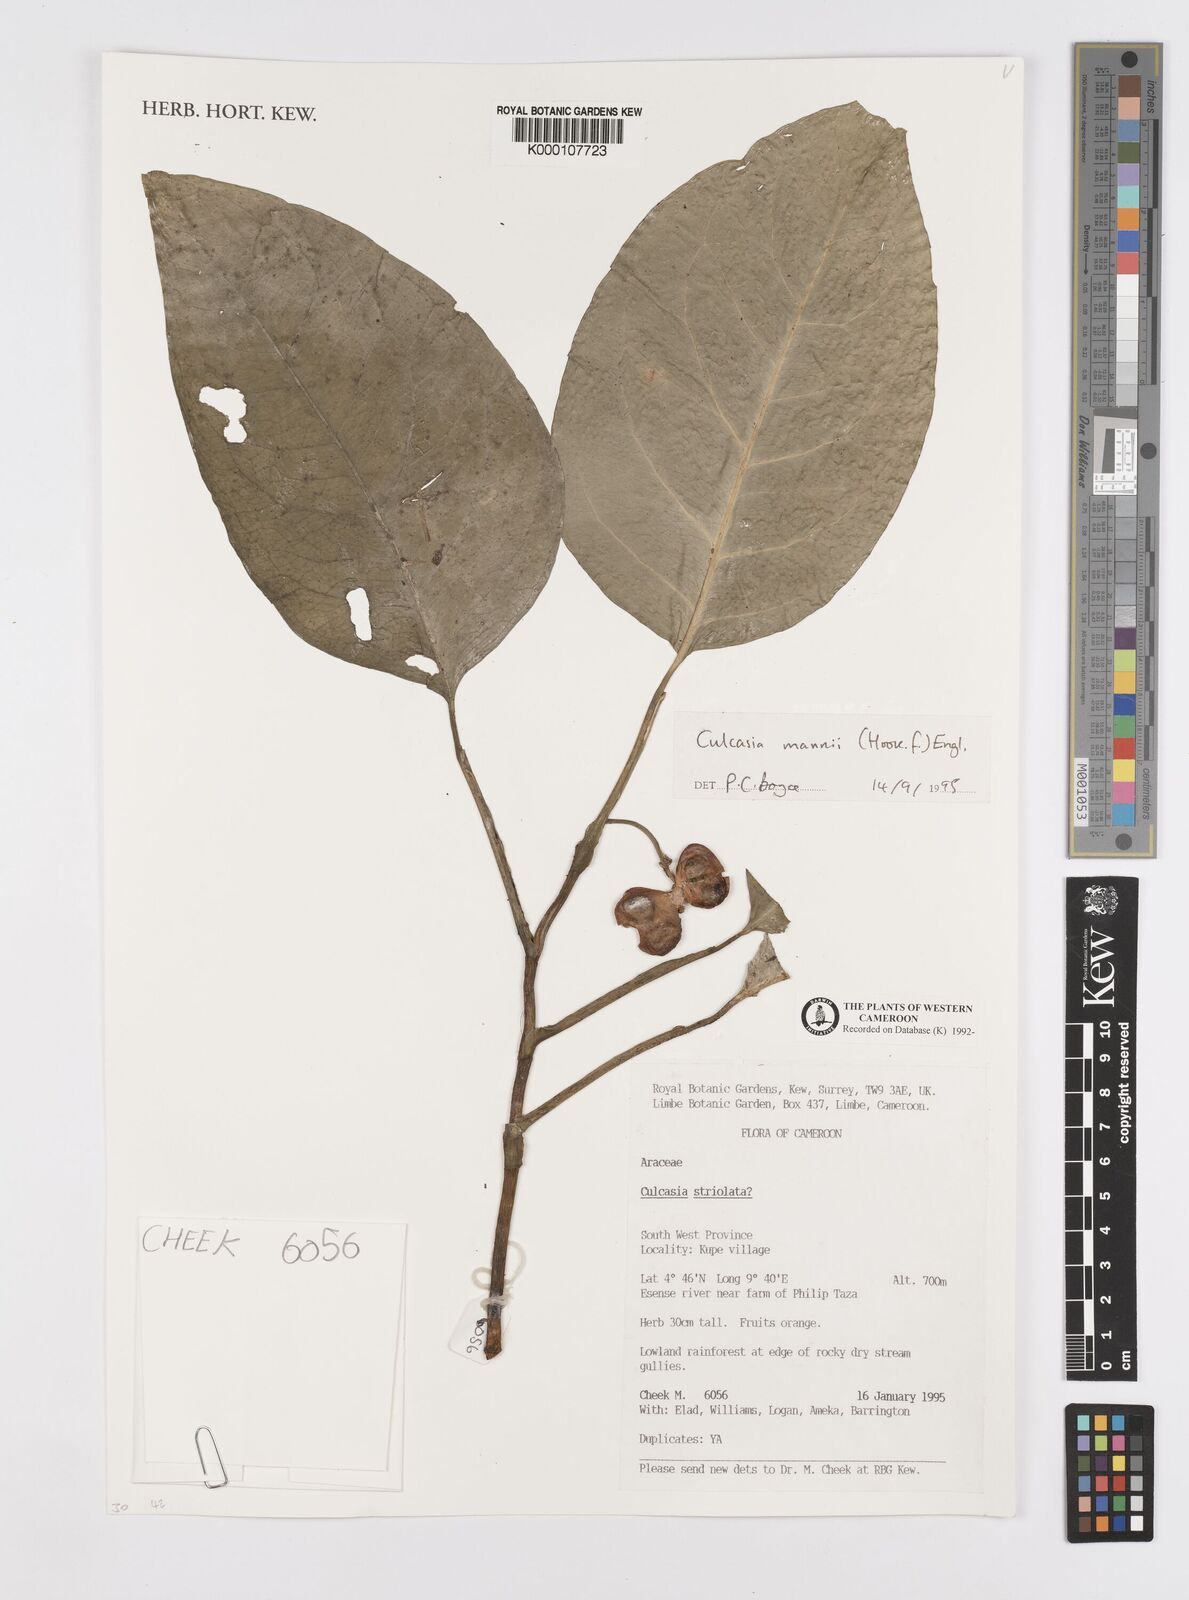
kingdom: Plantae
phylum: Tracheophyta
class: Liliopsida
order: Alismatales
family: Araceae
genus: Culcasia
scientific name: Culcasia mannii
